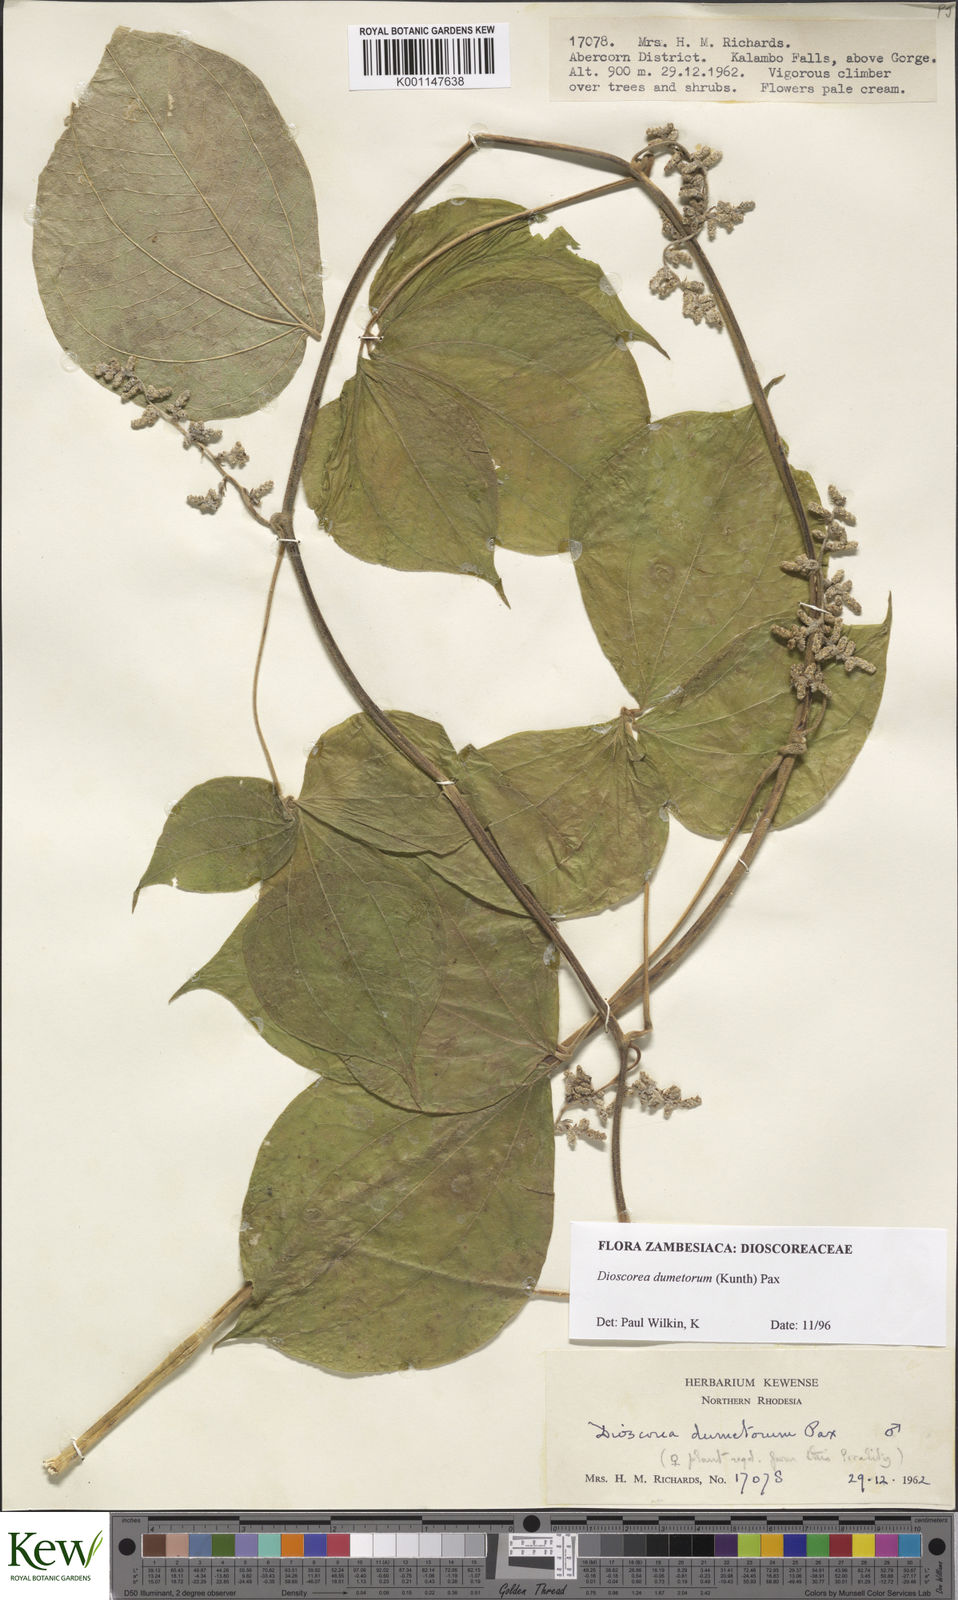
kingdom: Plantae
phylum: Tracheophyta
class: Liliopsida
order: Dioscoreales
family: Dioscoreaceae
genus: Dioscorea
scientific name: Dioscorea dumetorum
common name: African bitter yam
